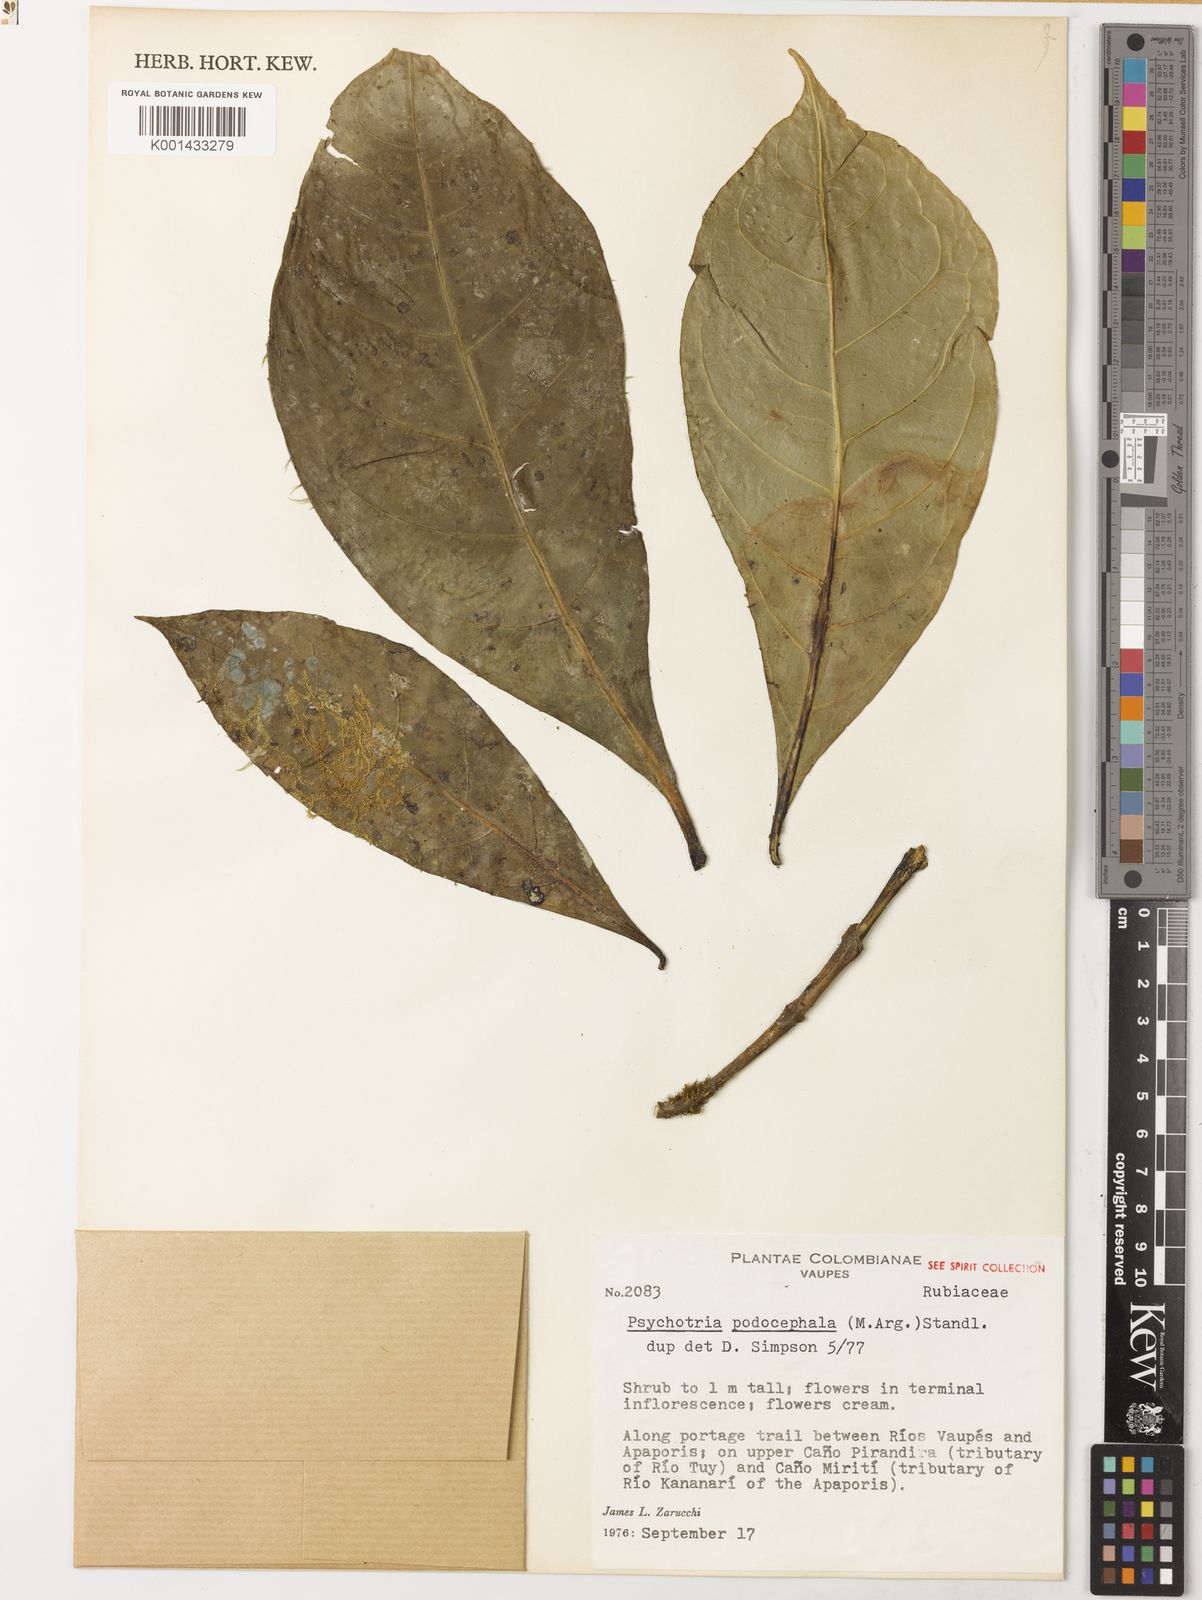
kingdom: Plantae
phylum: Tracheophyta
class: Magnoliopsida
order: Gentianales
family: Rubiaceae
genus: Psychotria
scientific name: Psychotria
